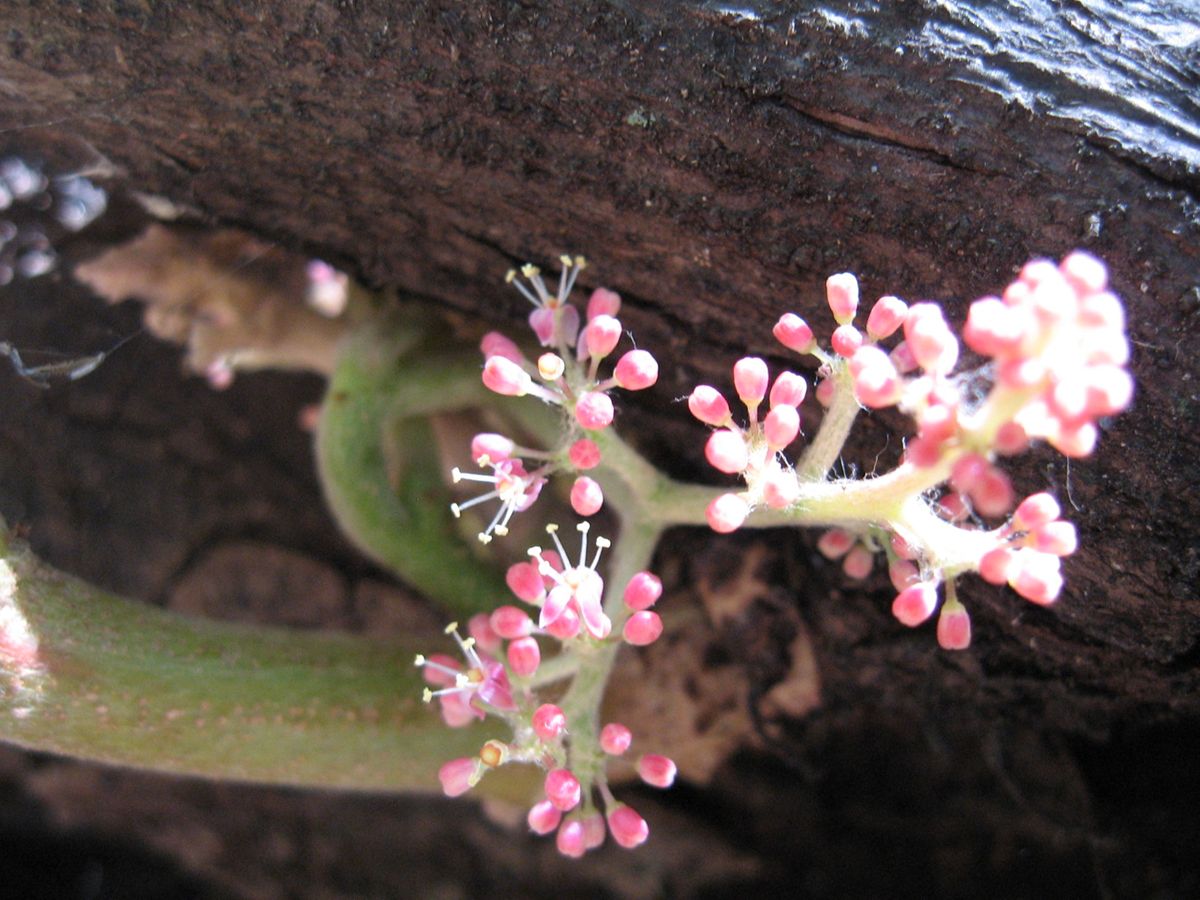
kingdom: Plantae
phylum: Tracheophyta
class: Magnoliopsida
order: Vitales
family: Vitaceae
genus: Vitis
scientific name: Vitis tiliifolia
